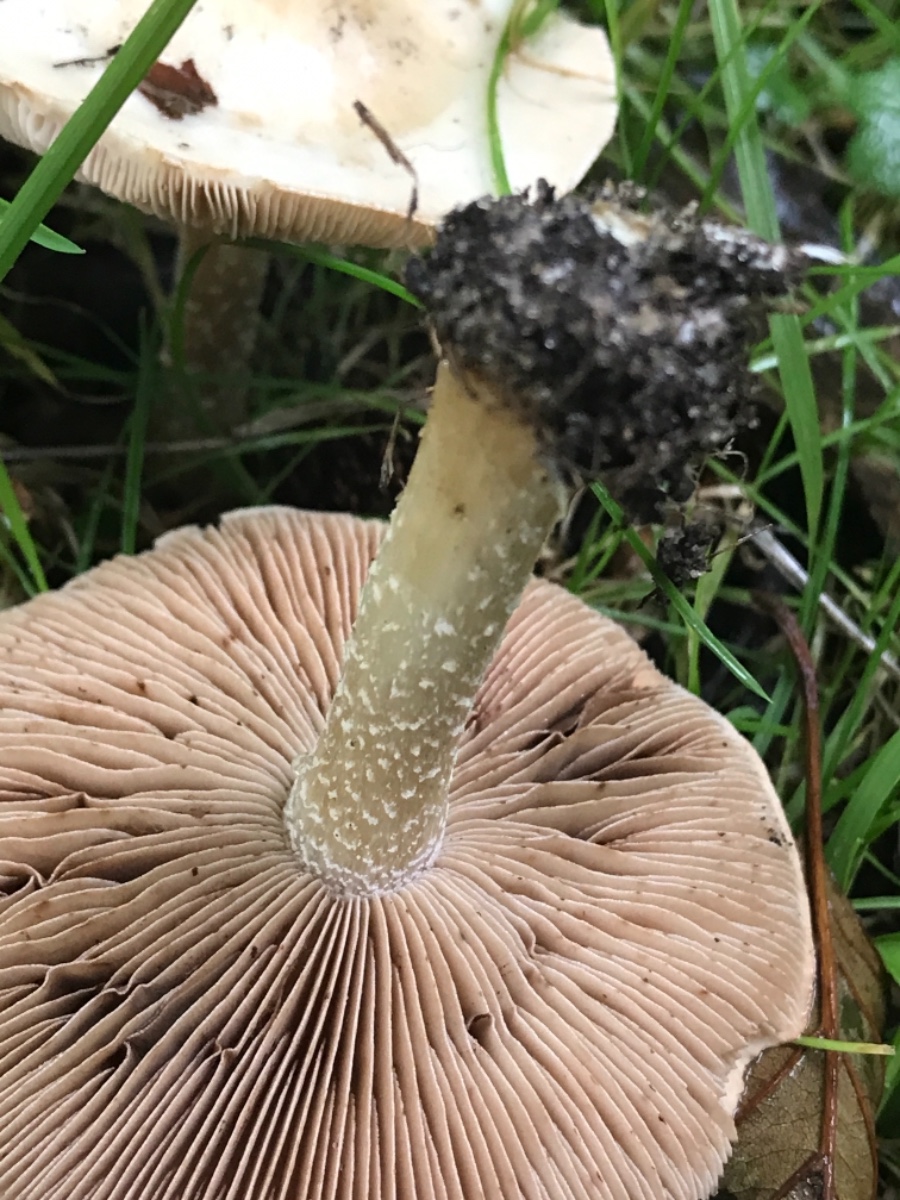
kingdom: Fungi
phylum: Basidiomycota
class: Agaricomycetes
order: Agaricales
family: Hymenogastraceae
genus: Hebeloma
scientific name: Hebeloma
